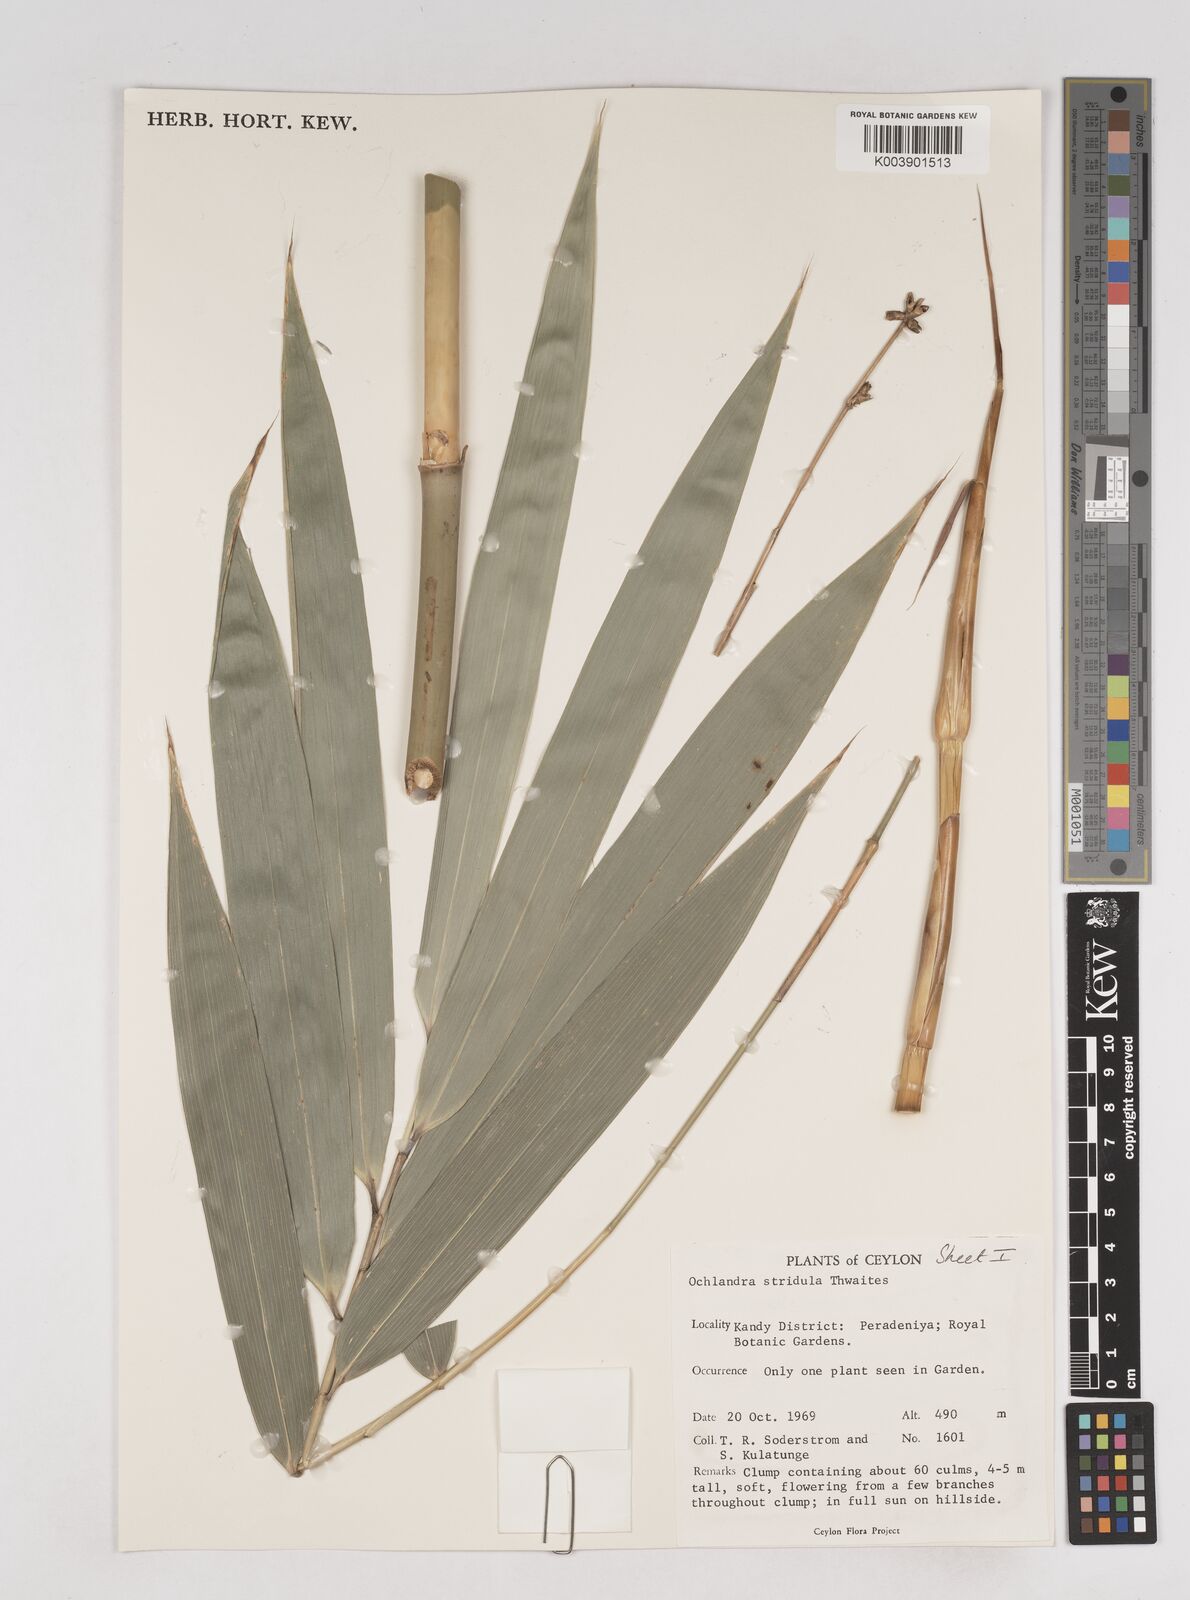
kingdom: Plantae
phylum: Tracheophyta
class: Liliopsida
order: Poales
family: Poaceae
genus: Ochlandra
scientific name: Ochlandra stridula
